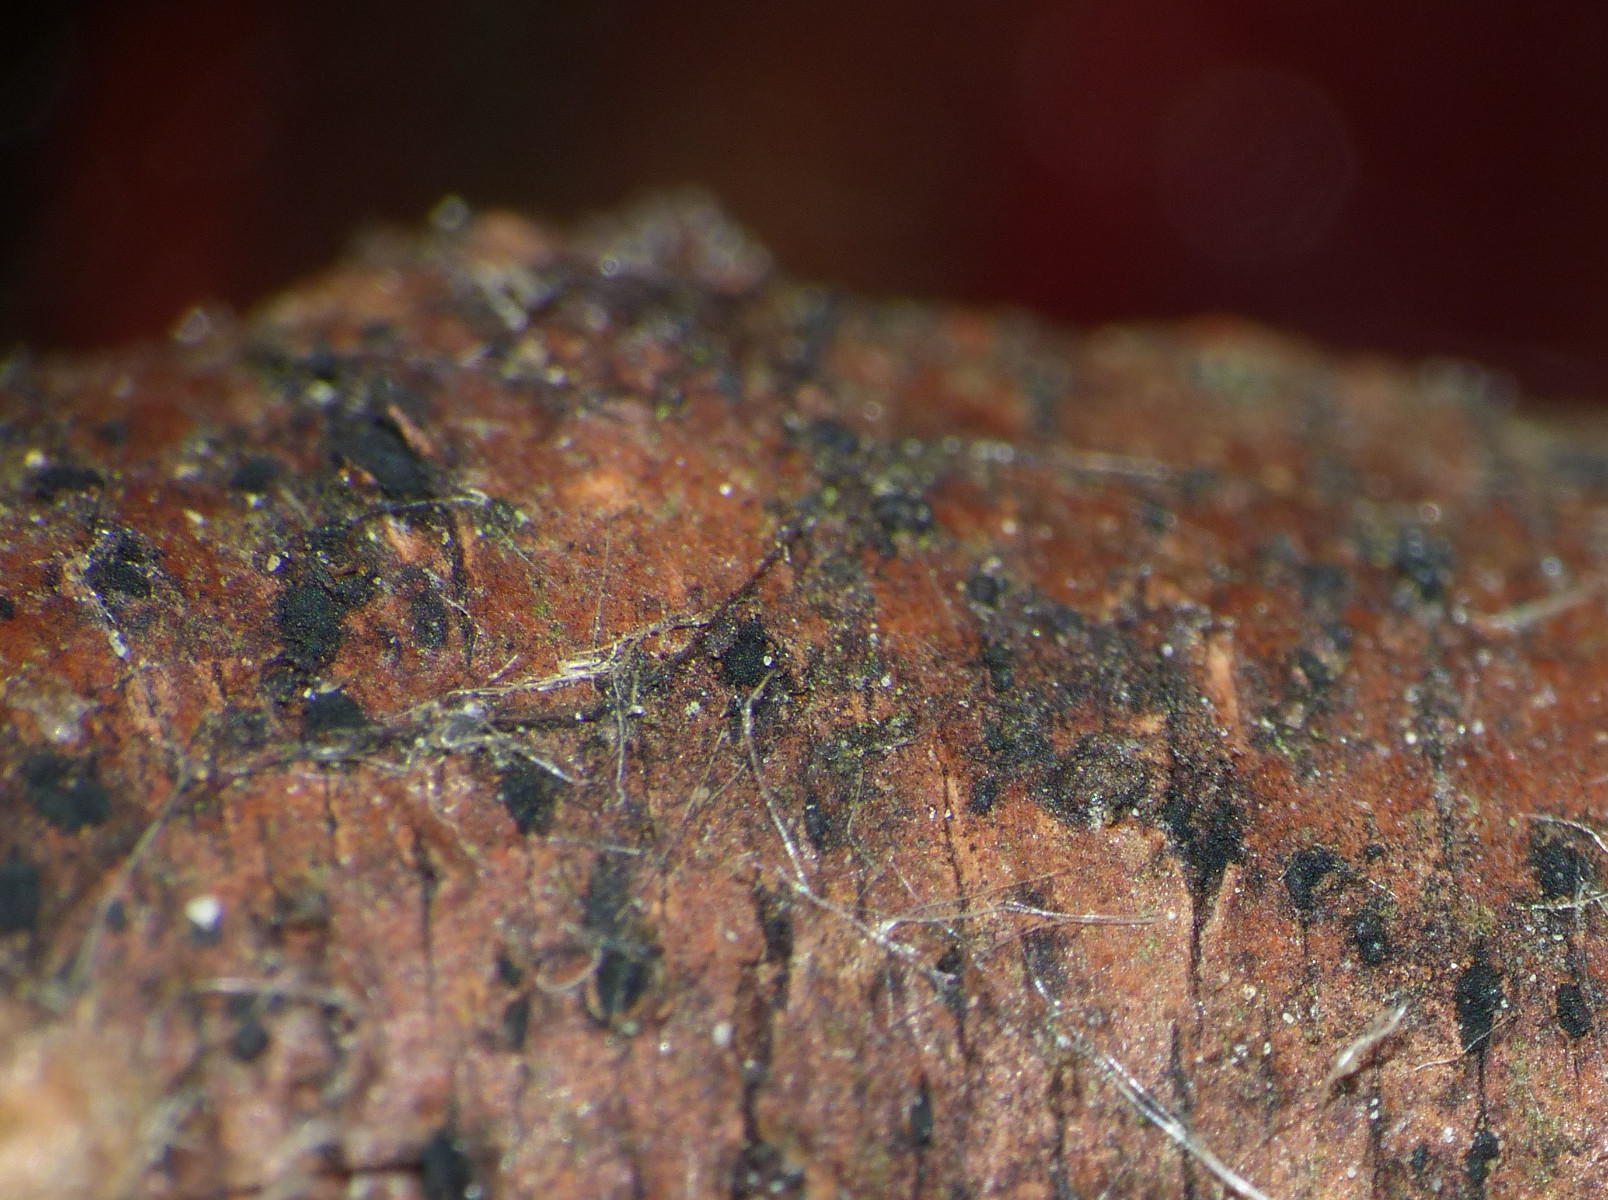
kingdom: Fungi
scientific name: Fungi
